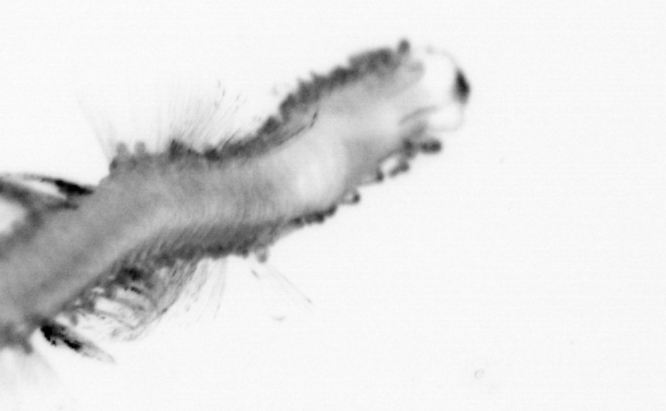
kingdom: Animalia
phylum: Annelida
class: Polychaeta
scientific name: Polychaeta
